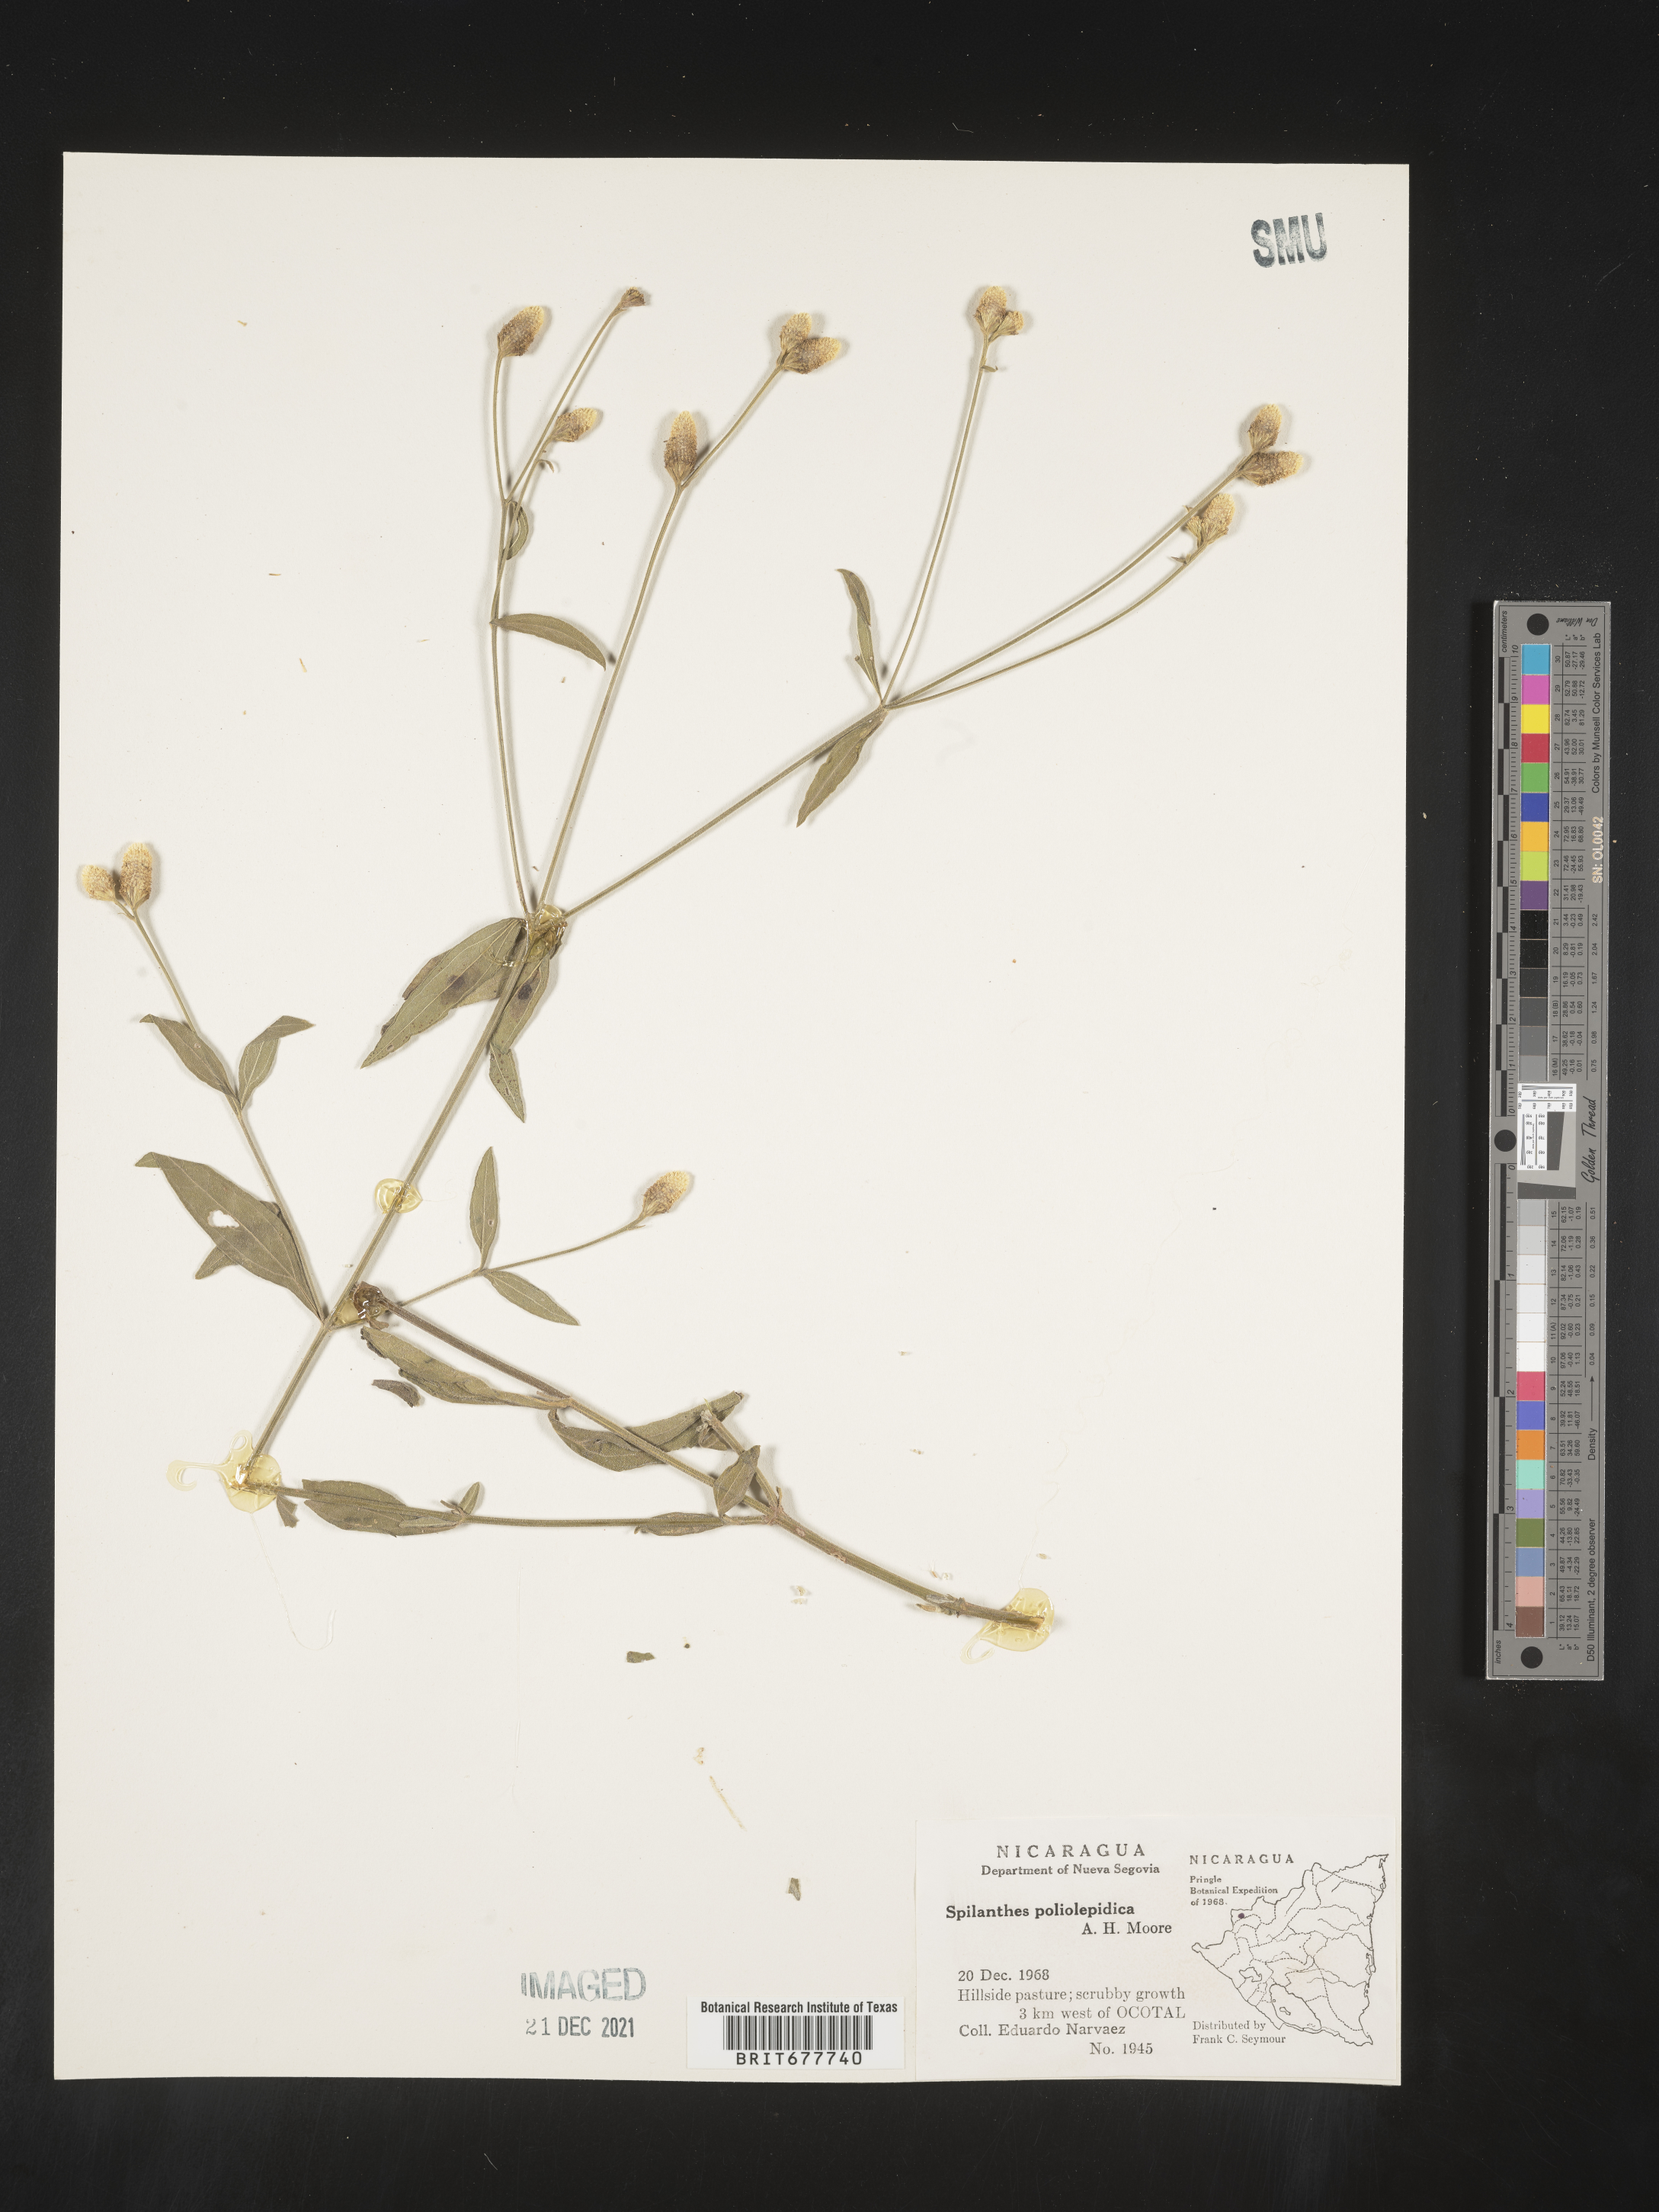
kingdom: Plantae
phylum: Tracheophyta
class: Magnoliopsida
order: Asterales
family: Asteraceae
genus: Spilanthes
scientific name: Spilanthes
